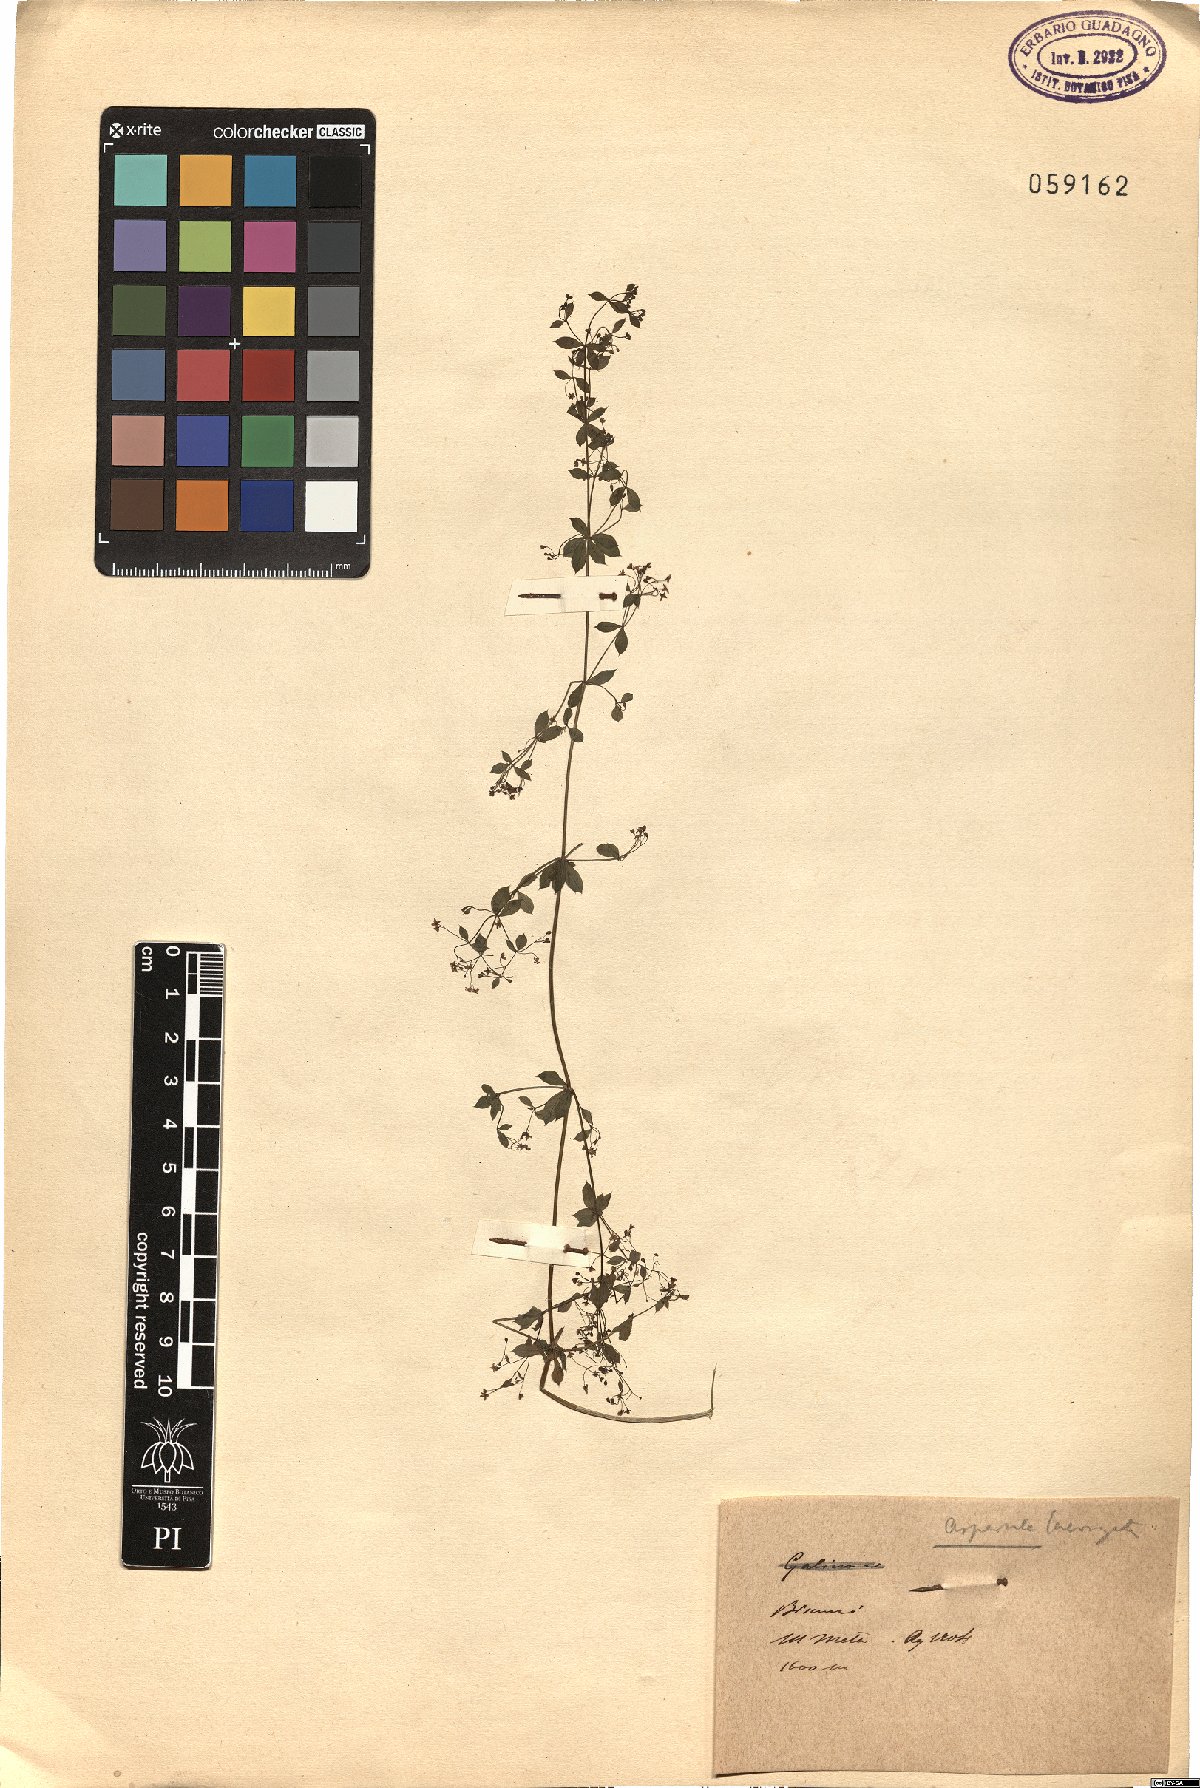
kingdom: Plantae
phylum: Tracheophyta
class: Magnoliopsida
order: Gentianales
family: Rubiaceae
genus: Asperula
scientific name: Asperula laevigata
